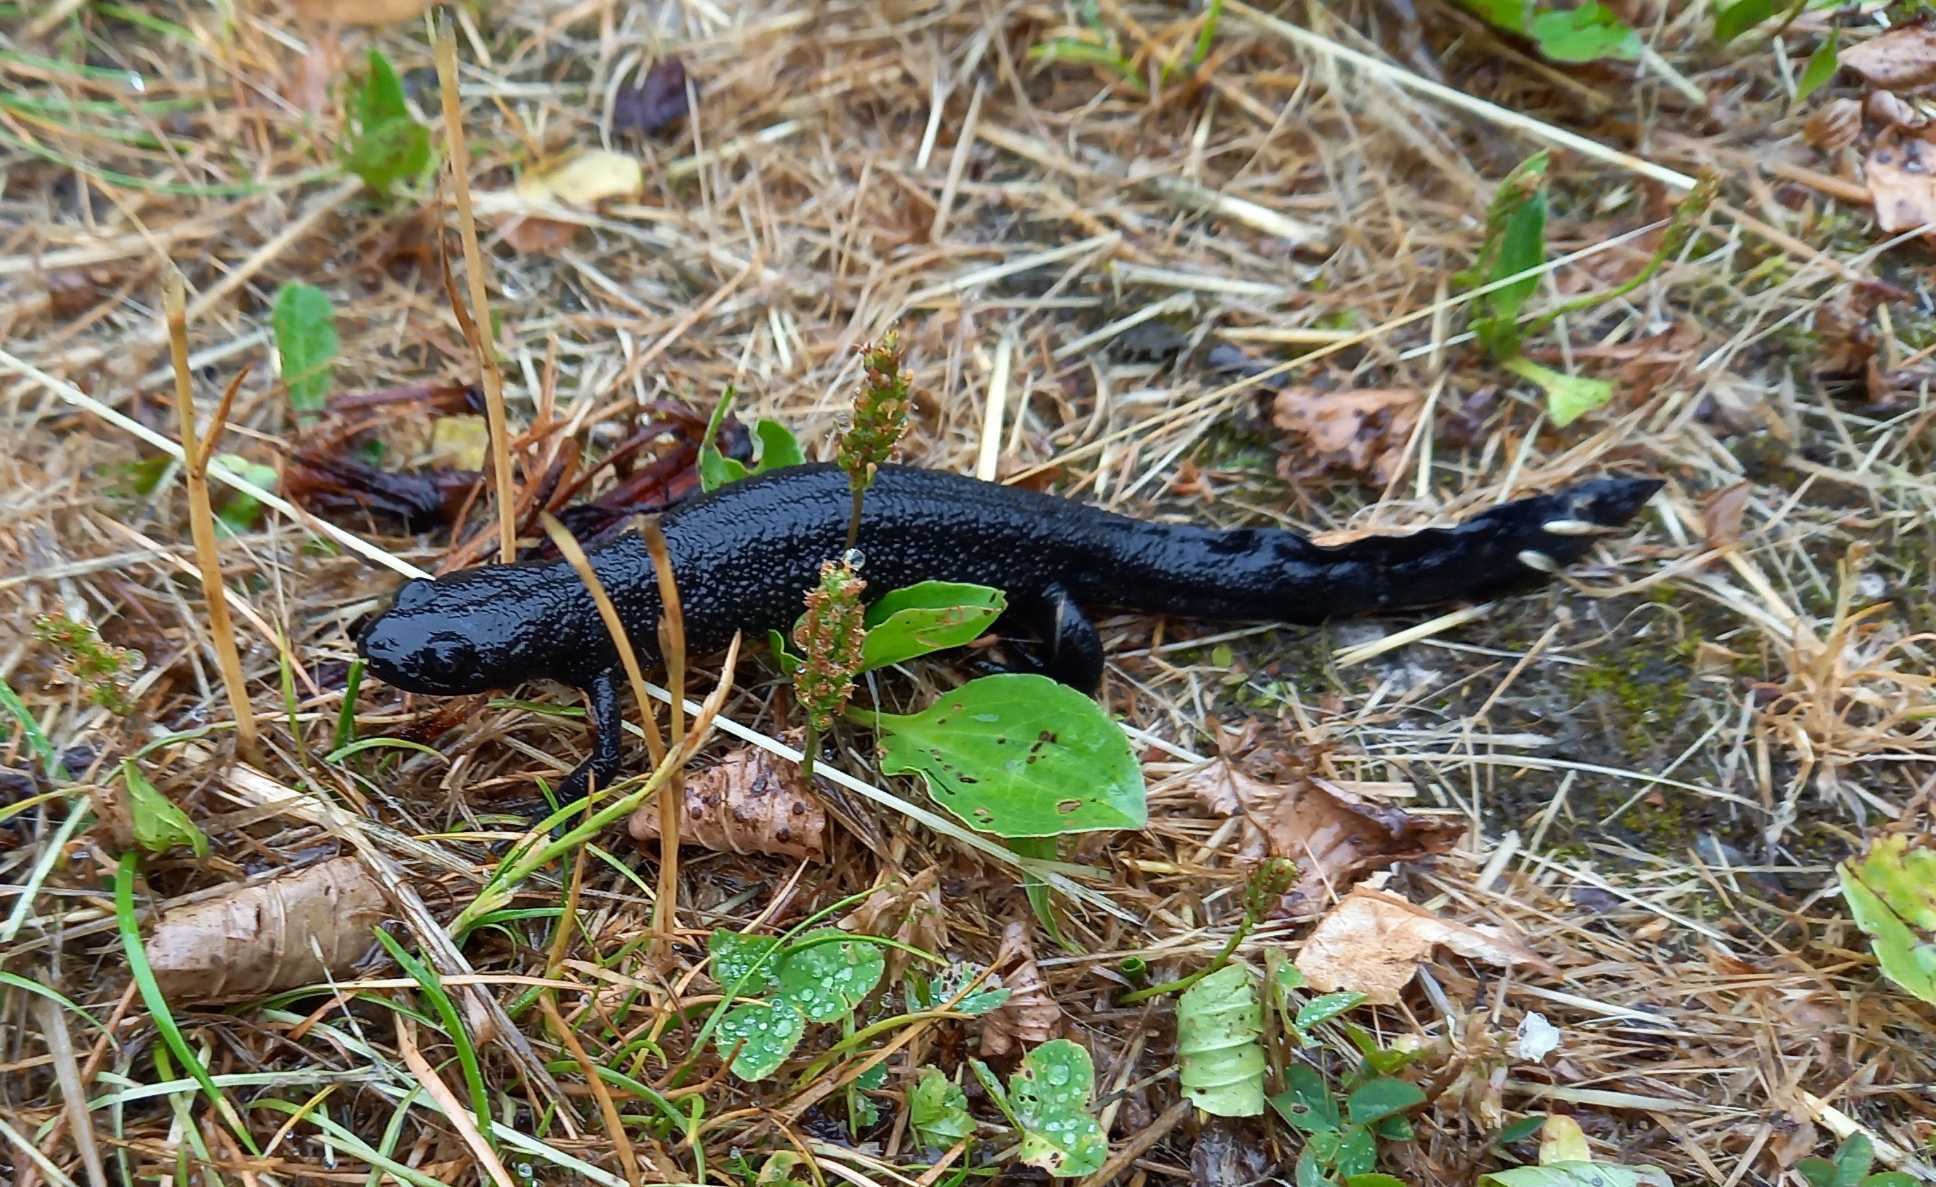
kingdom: Animalia
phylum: Chordata
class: Amphibia
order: Caudata
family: Salamandridae
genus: Triturus
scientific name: Triturus cristatus
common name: Stor vandsalamander
